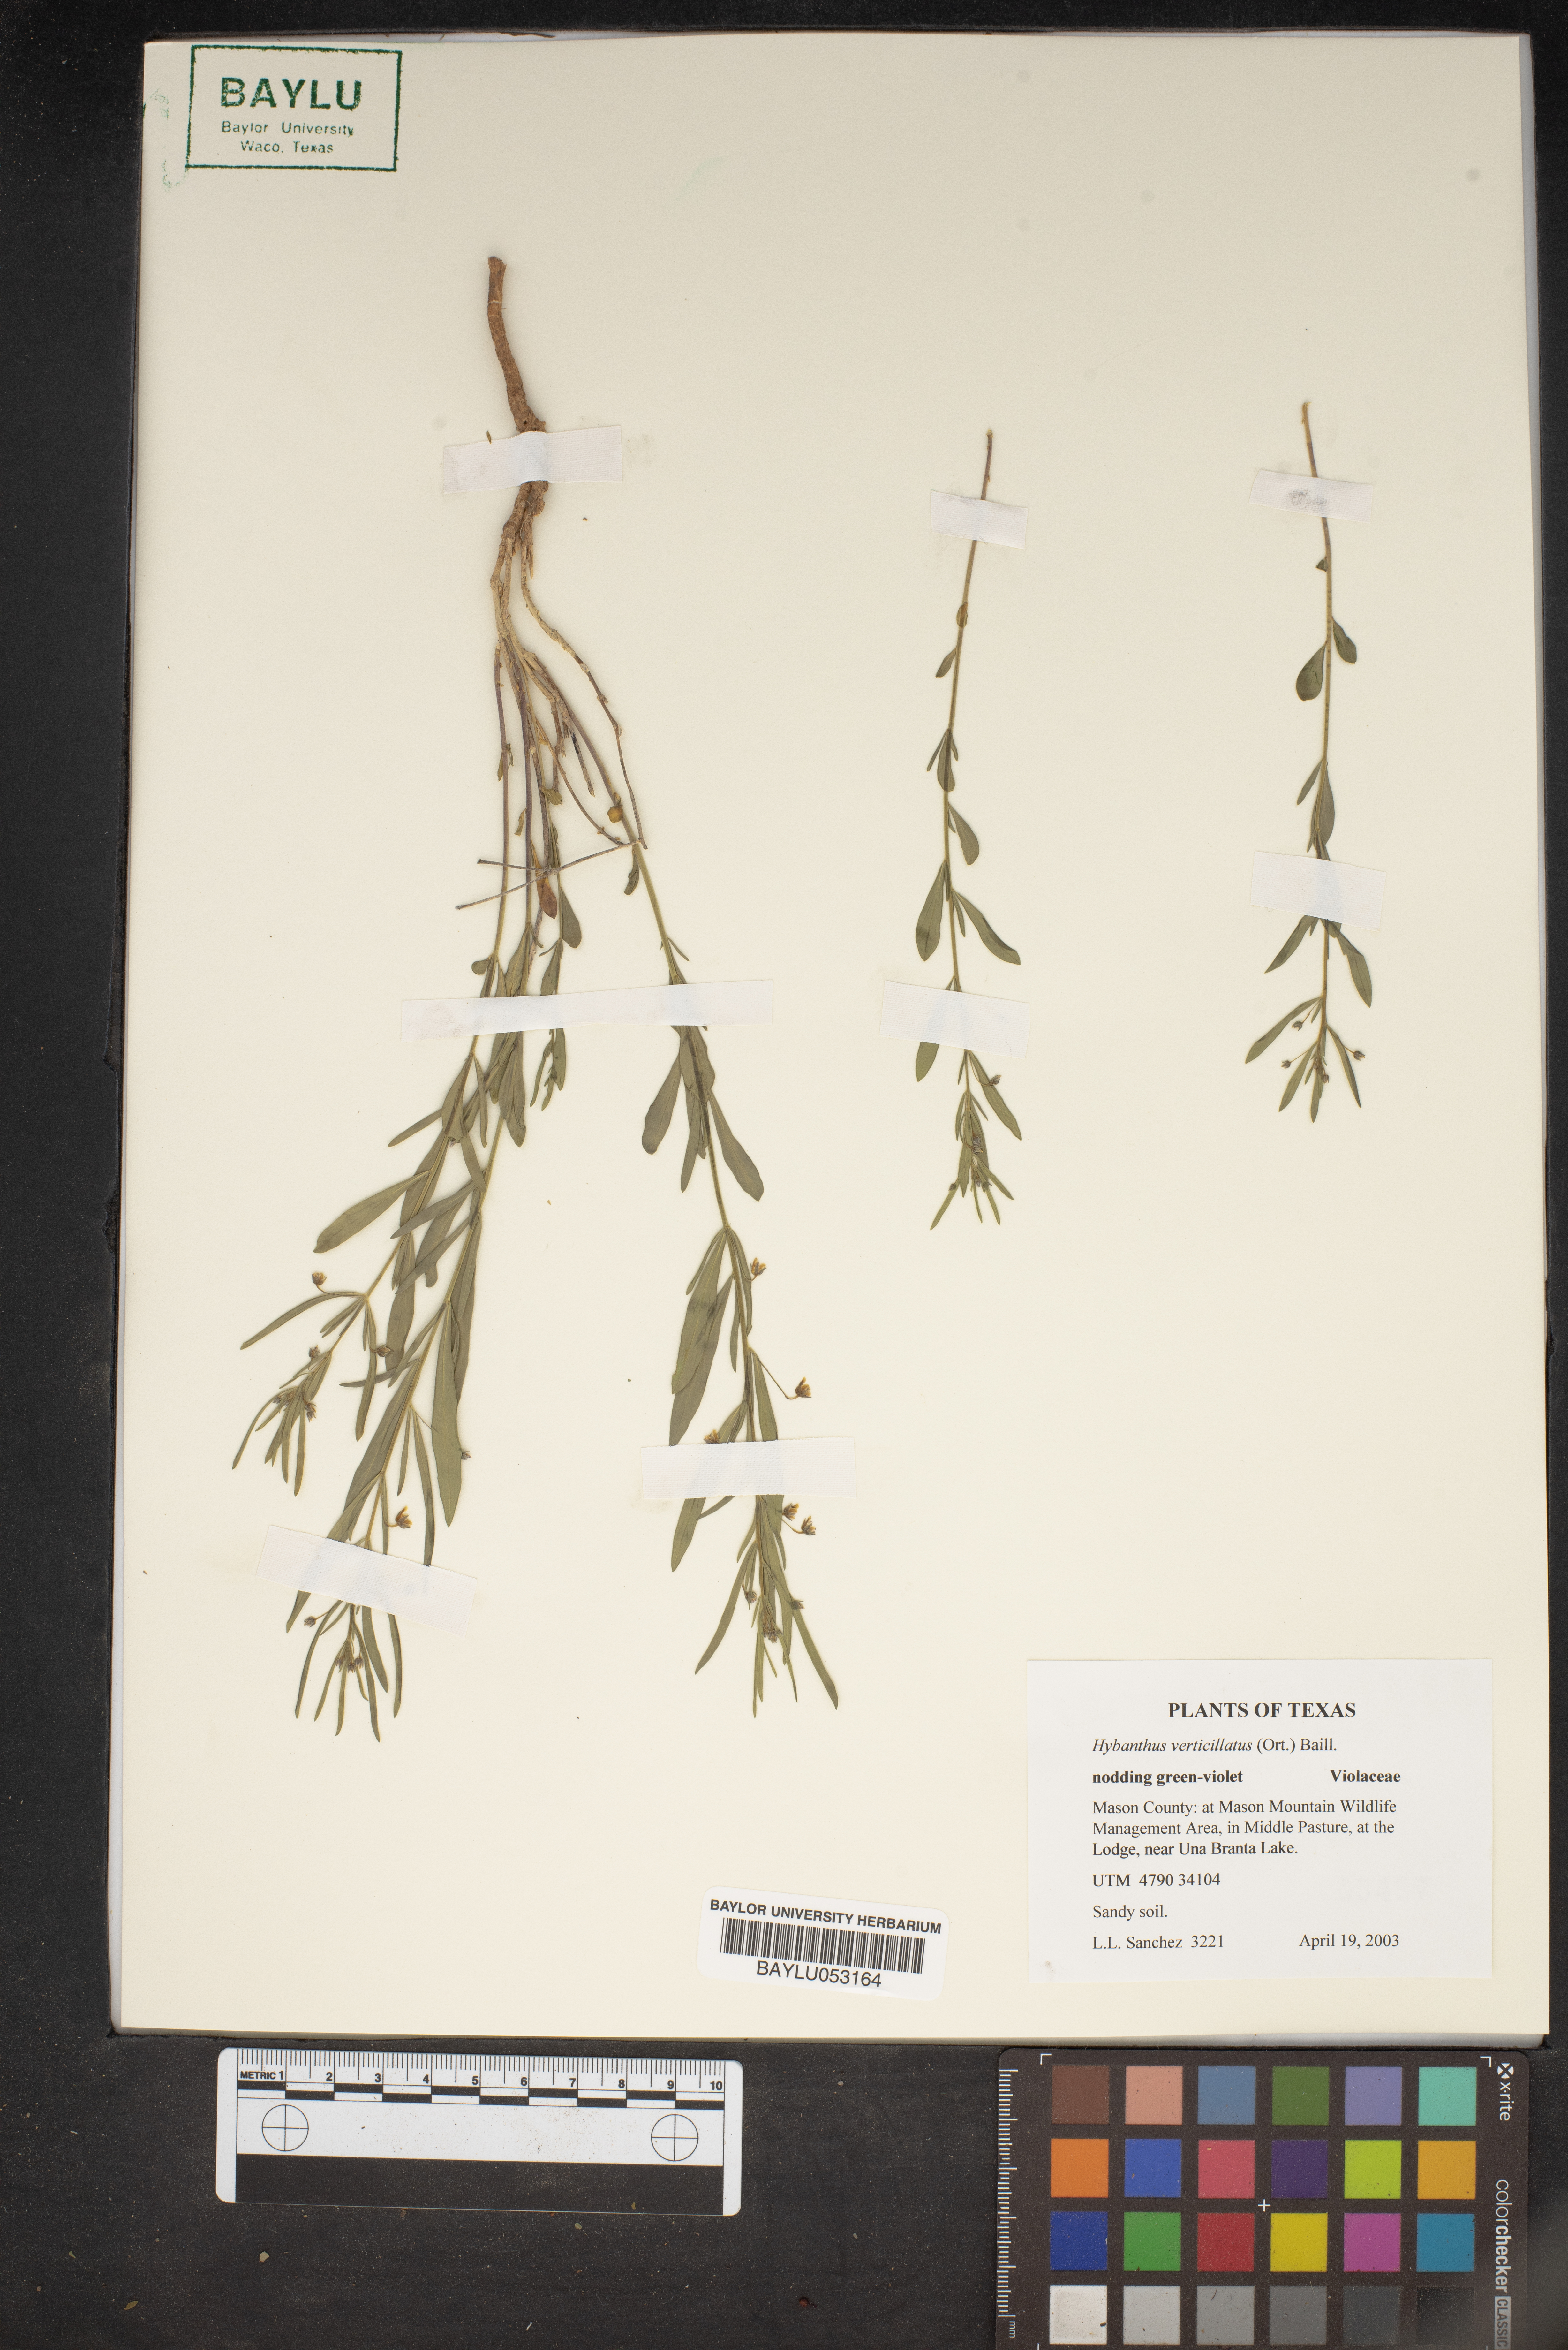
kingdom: Plantae
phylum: Tracheophyta
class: Magnoliopsida
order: Malpighiales
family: Violaceae
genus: Pombalia
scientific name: Pombalia verticillata
